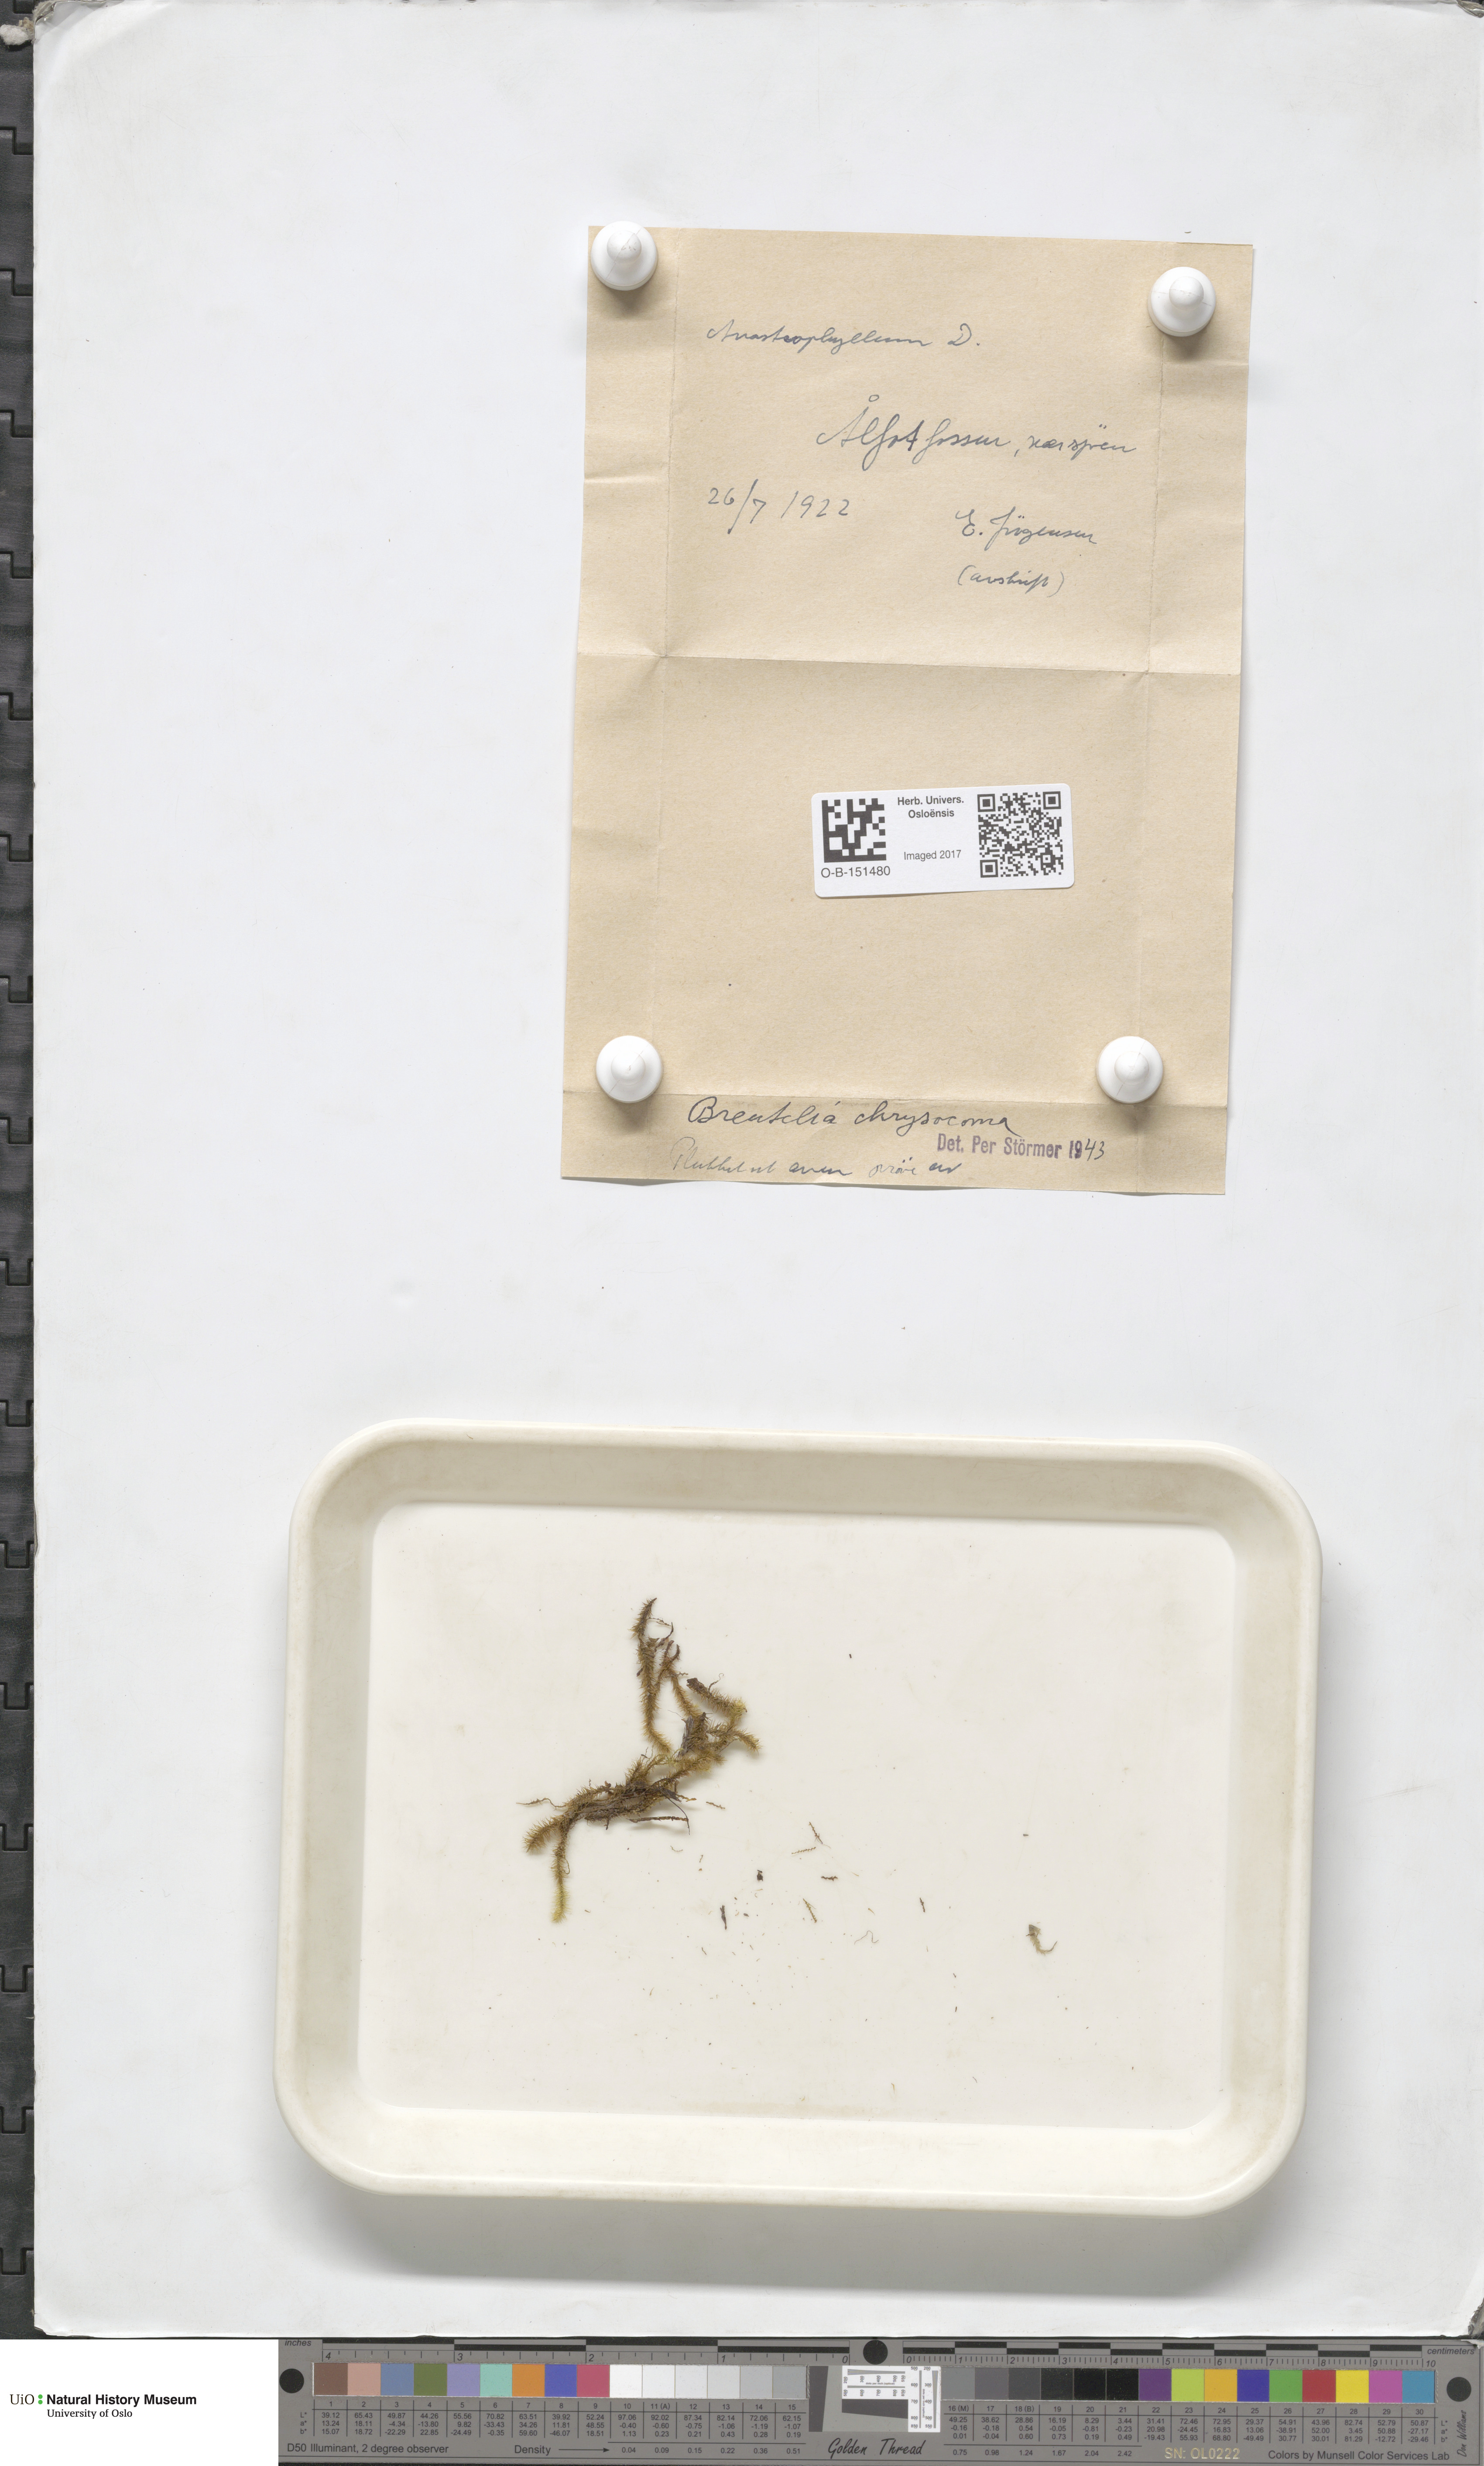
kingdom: Plantae
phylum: Bryophyta
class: Bryopsida
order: Bartramiales
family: Bartramiaceae
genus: Breutelia
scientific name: Breutelia chrysocoma
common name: Bottle-brush moss
